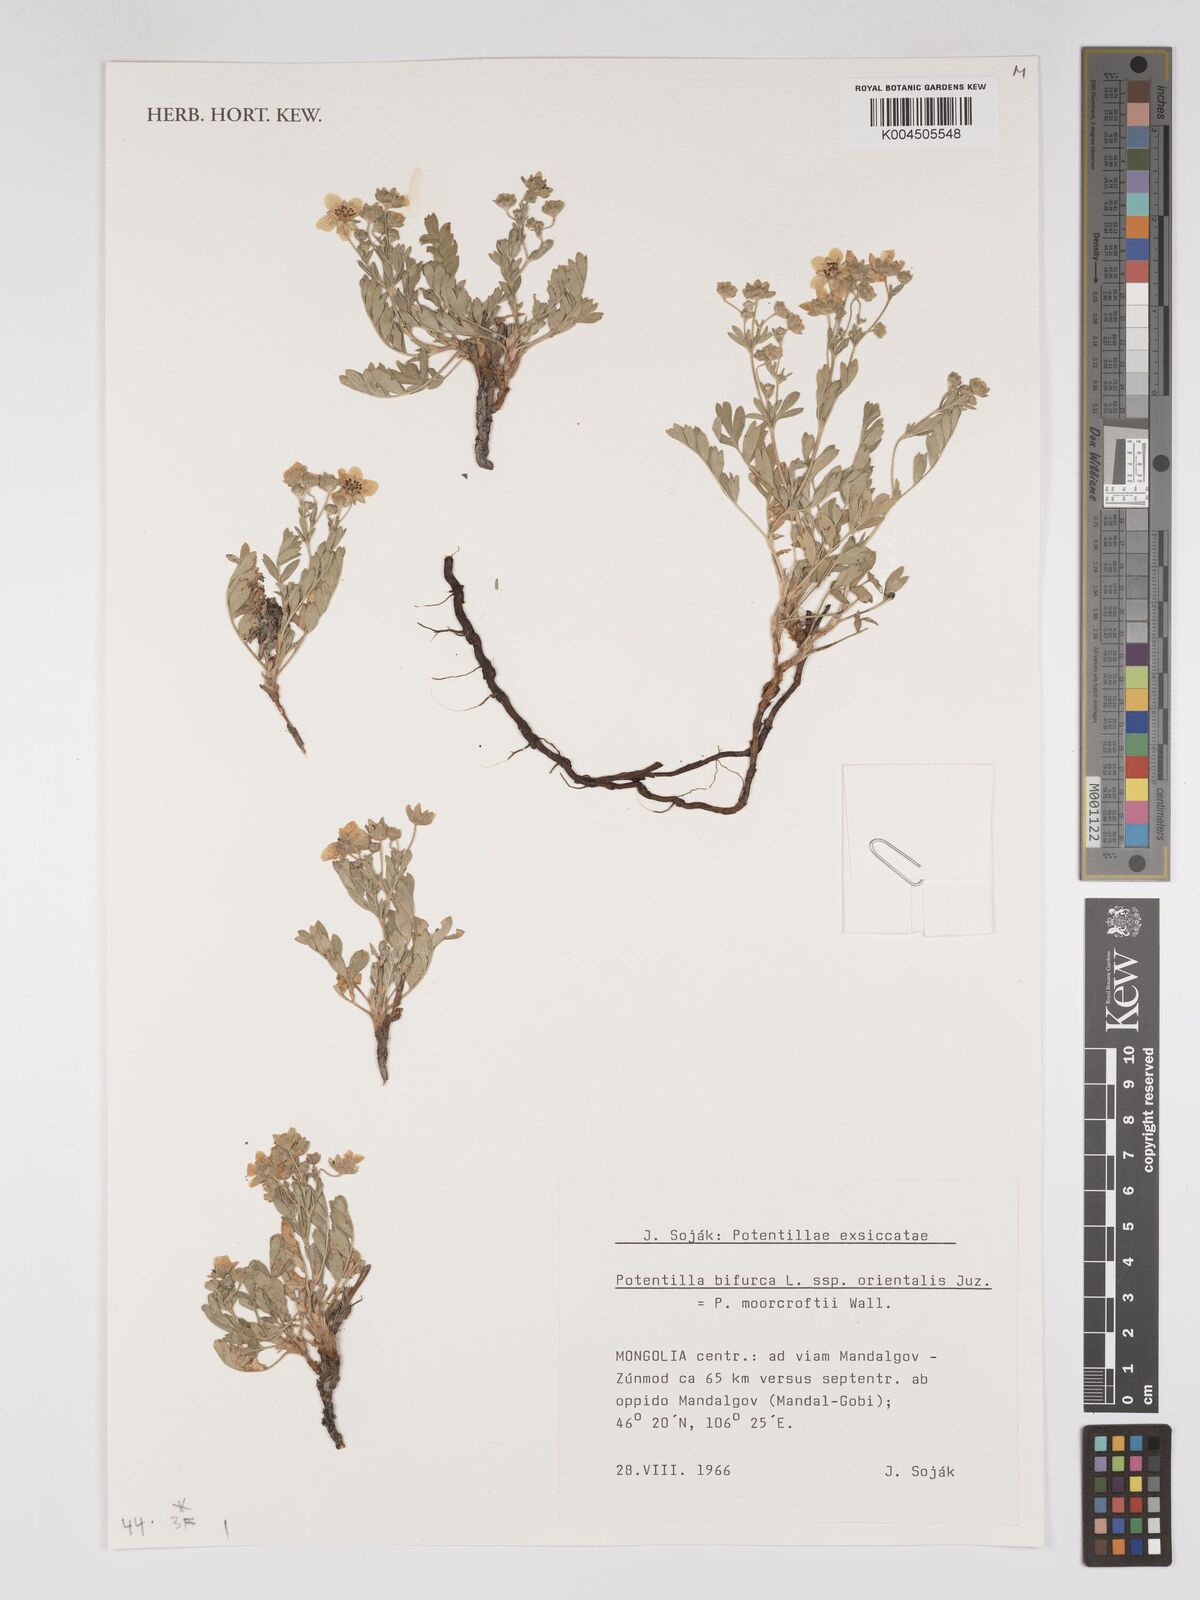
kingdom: Plantae
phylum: Tracheophyta
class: Magnoliopsida
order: Rosales
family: Rosaceae
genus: Sibbaldianthe
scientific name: Sibbaldianthe orientalis
